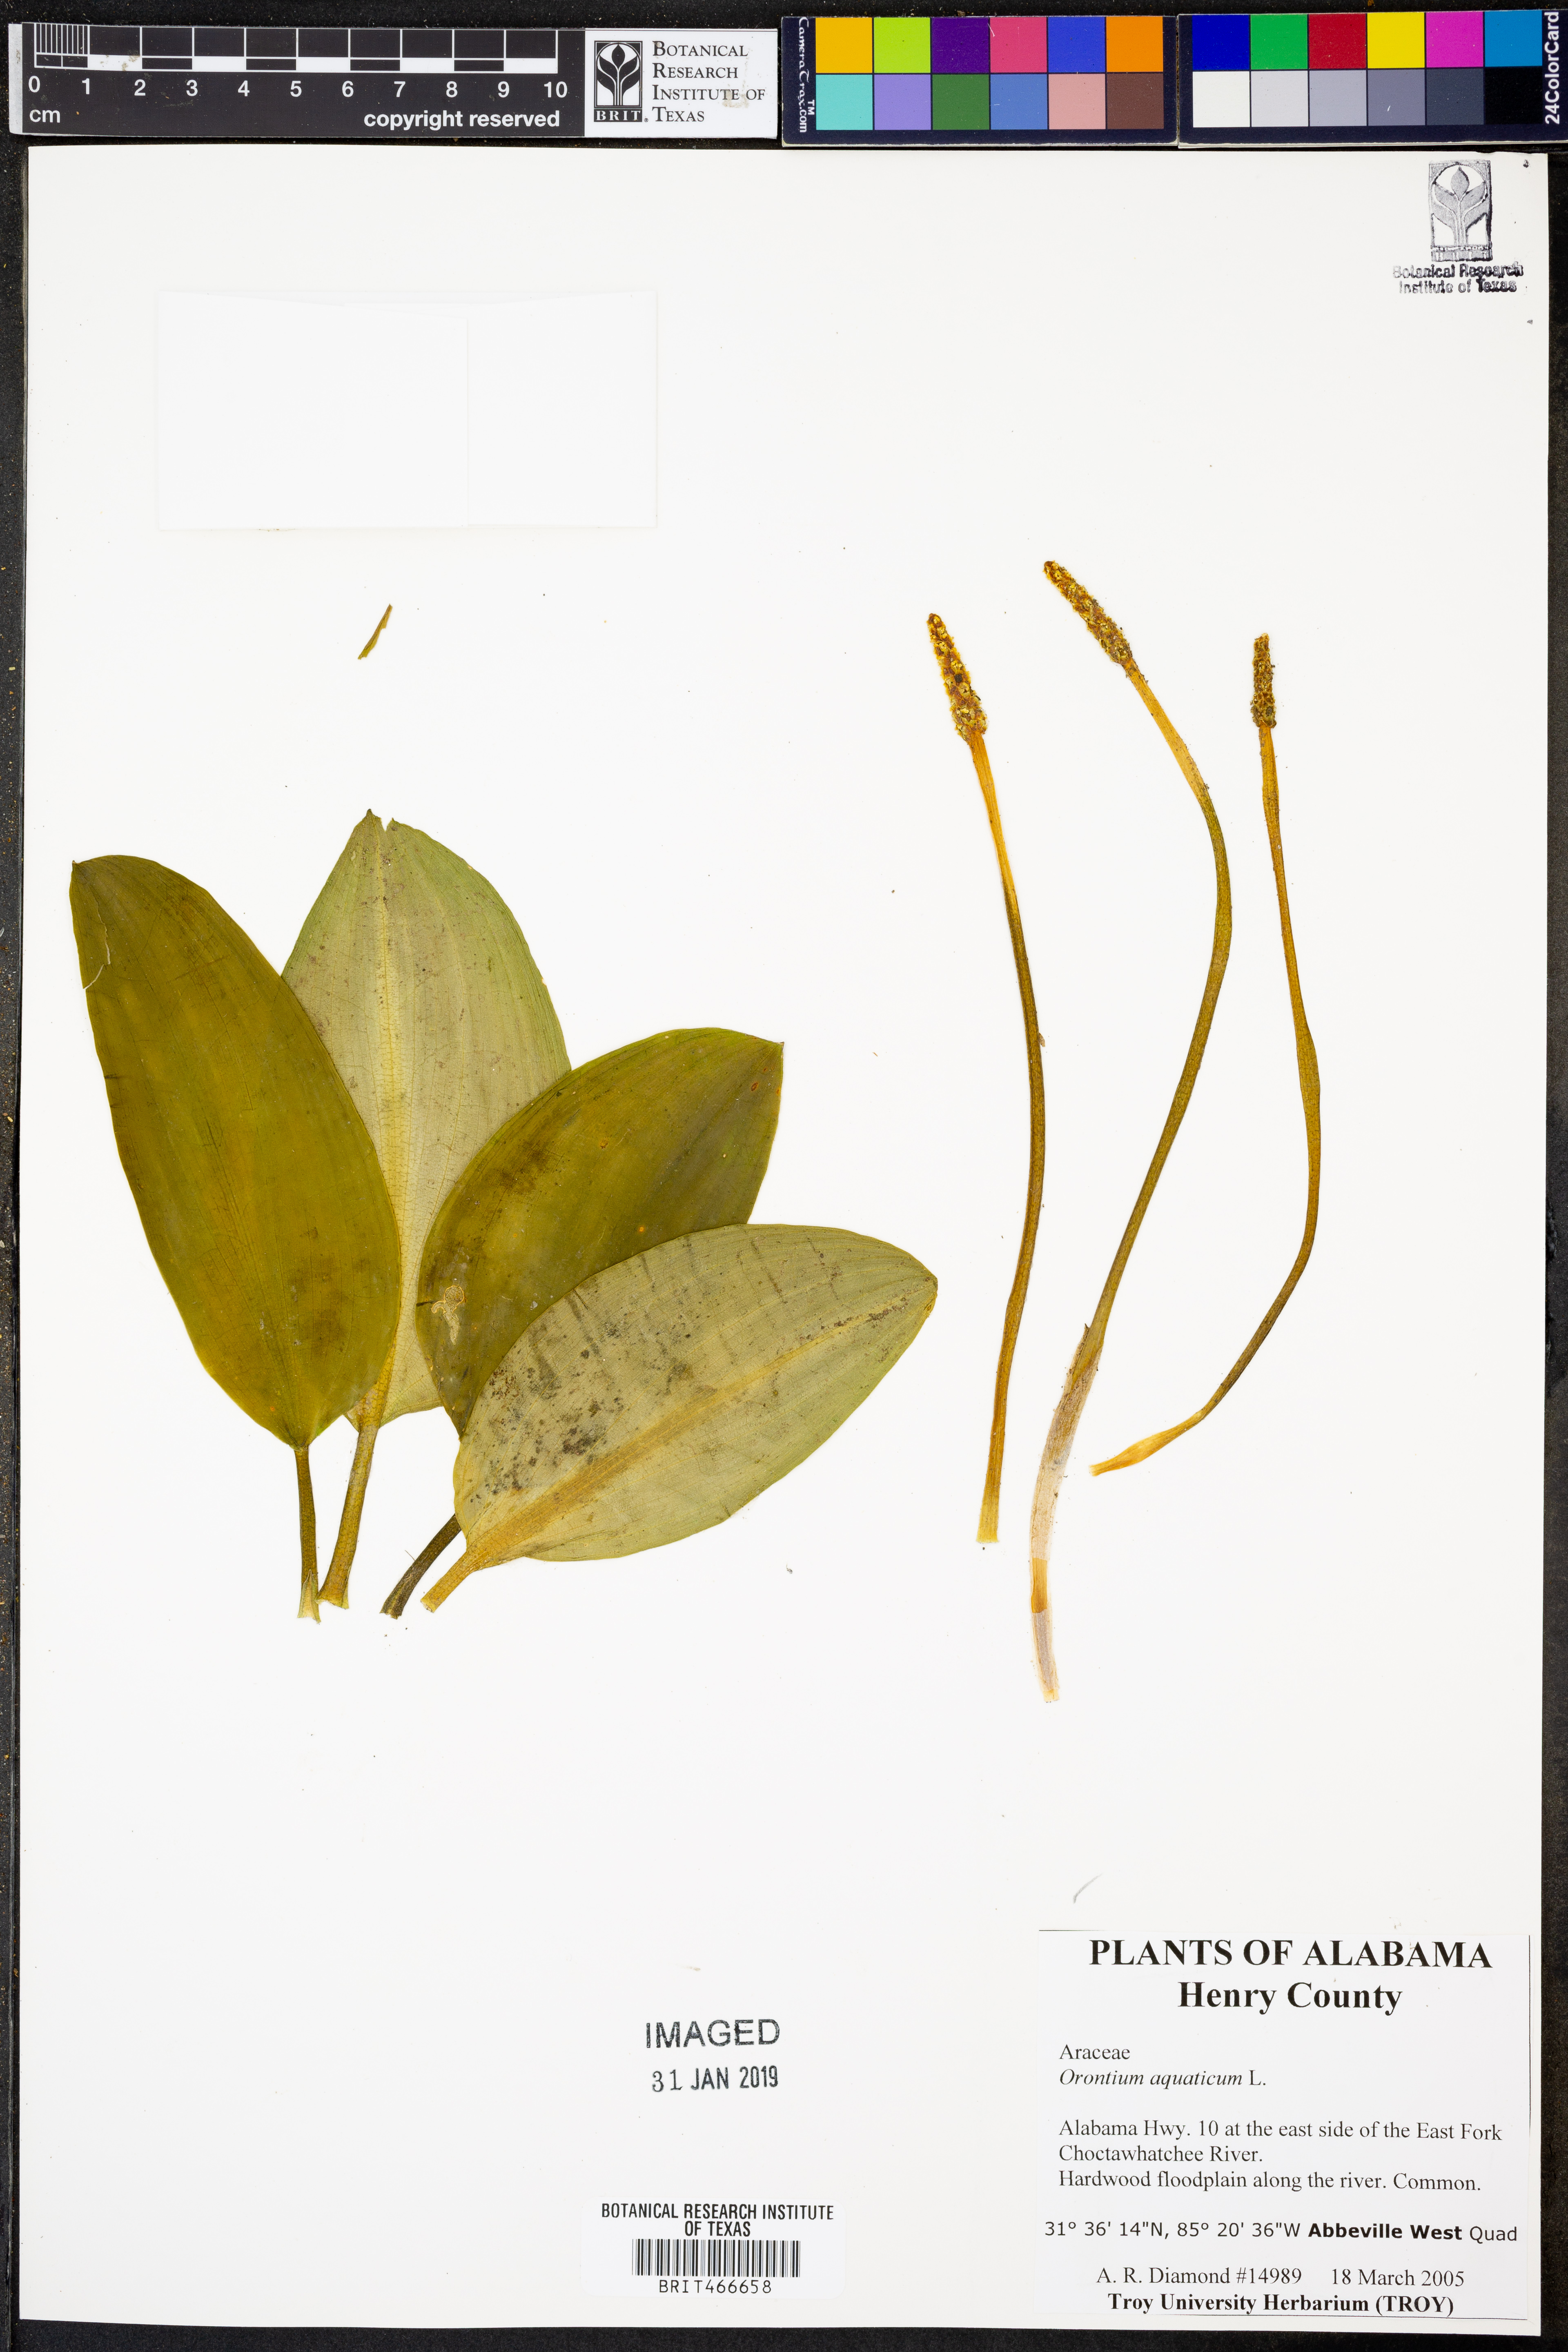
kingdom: Plantae
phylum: Tracheophyta
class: Liliopsida
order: Alismatales
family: Araceae
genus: Orontium
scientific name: Orontium aquaticum
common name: Golden-club
